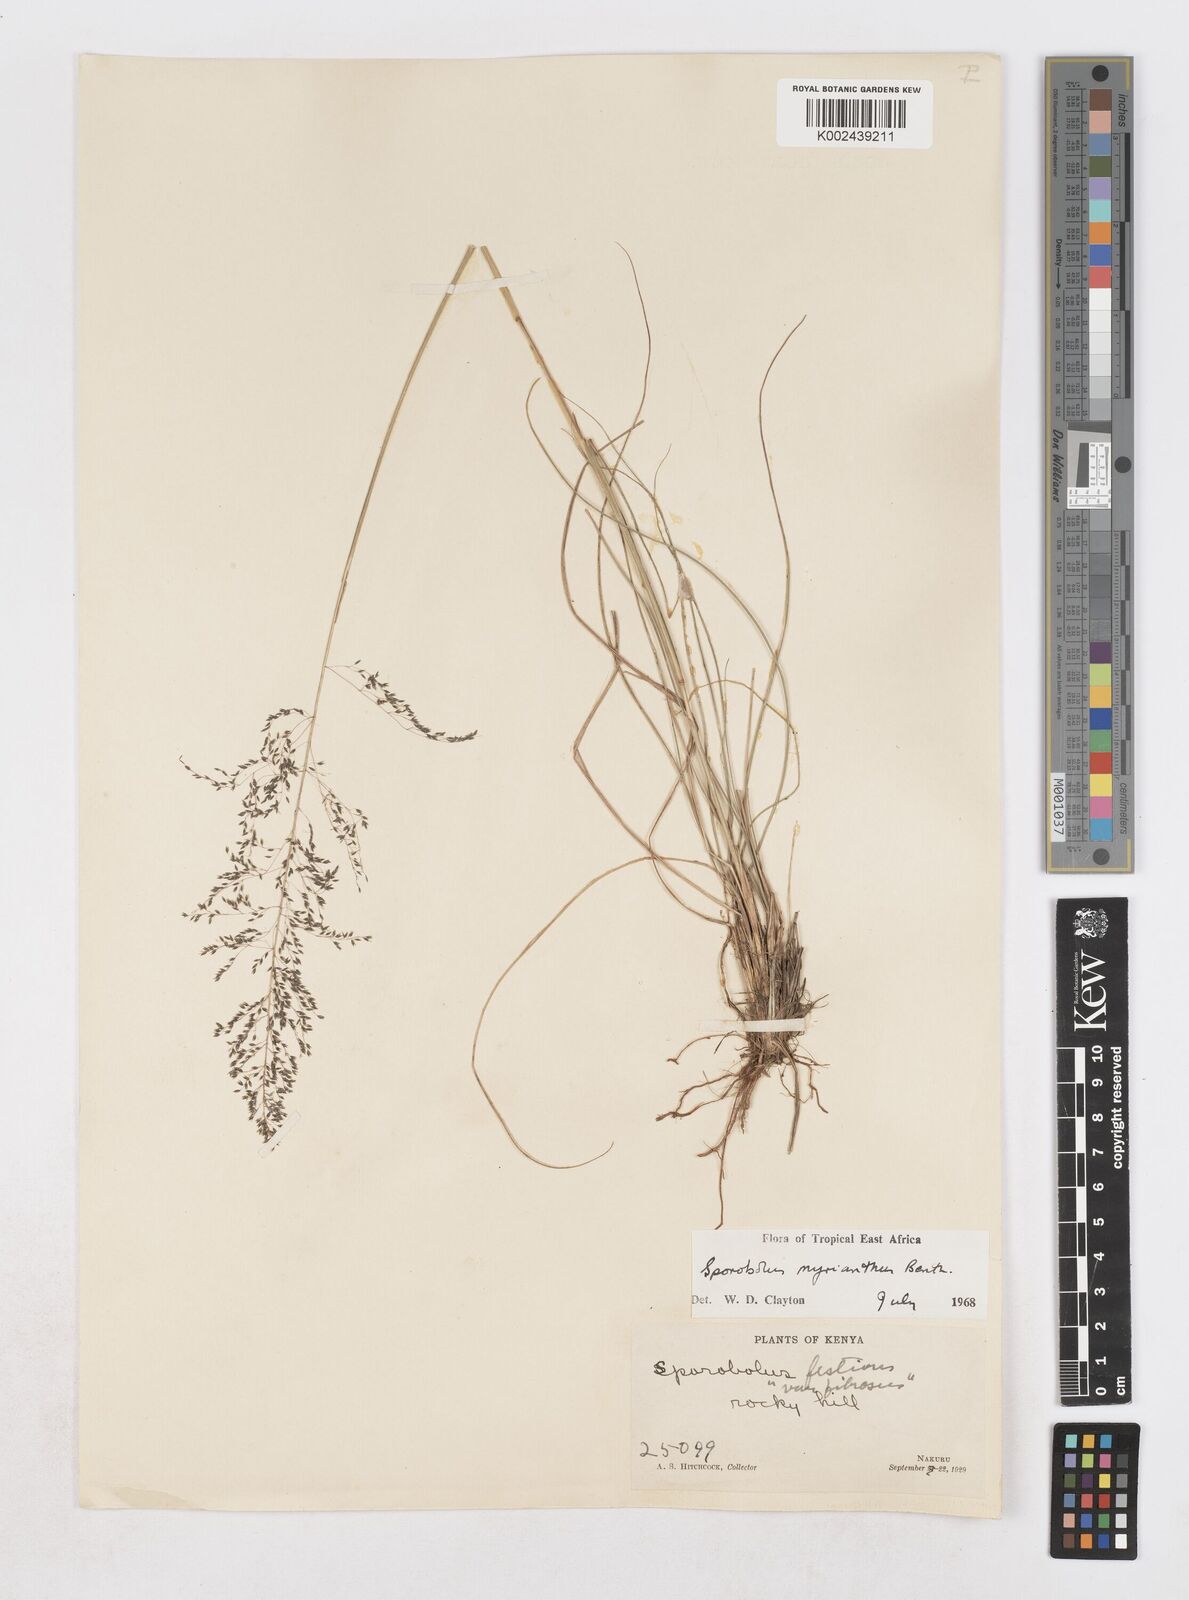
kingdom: Plantae
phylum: Tracheophyta
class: Liliopsida
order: Poales
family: Poaceae
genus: Sporobolus
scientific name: Sporobolus myrianthus
